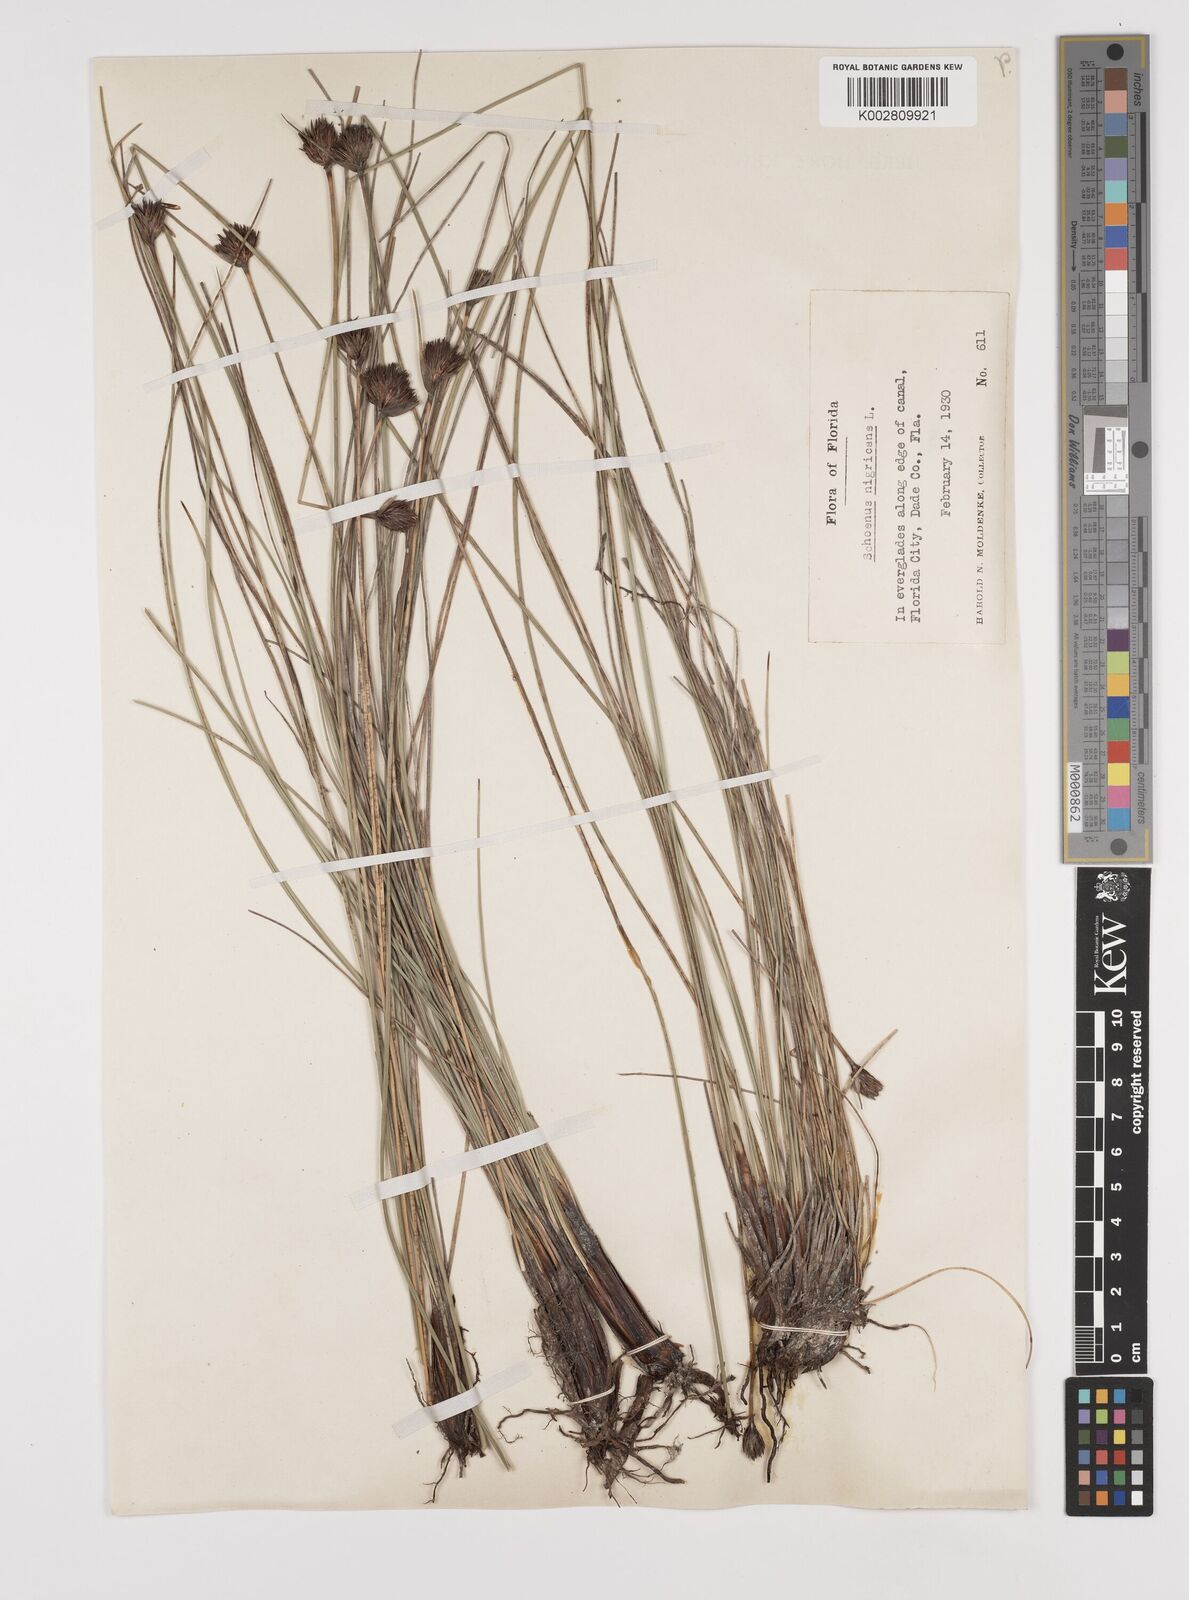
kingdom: Plantae
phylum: Tracheophyta
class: Liliopsida
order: Poales
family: Cyperaceae
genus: Schoenus
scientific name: Schoenus nigricans
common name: Black bog-rush
